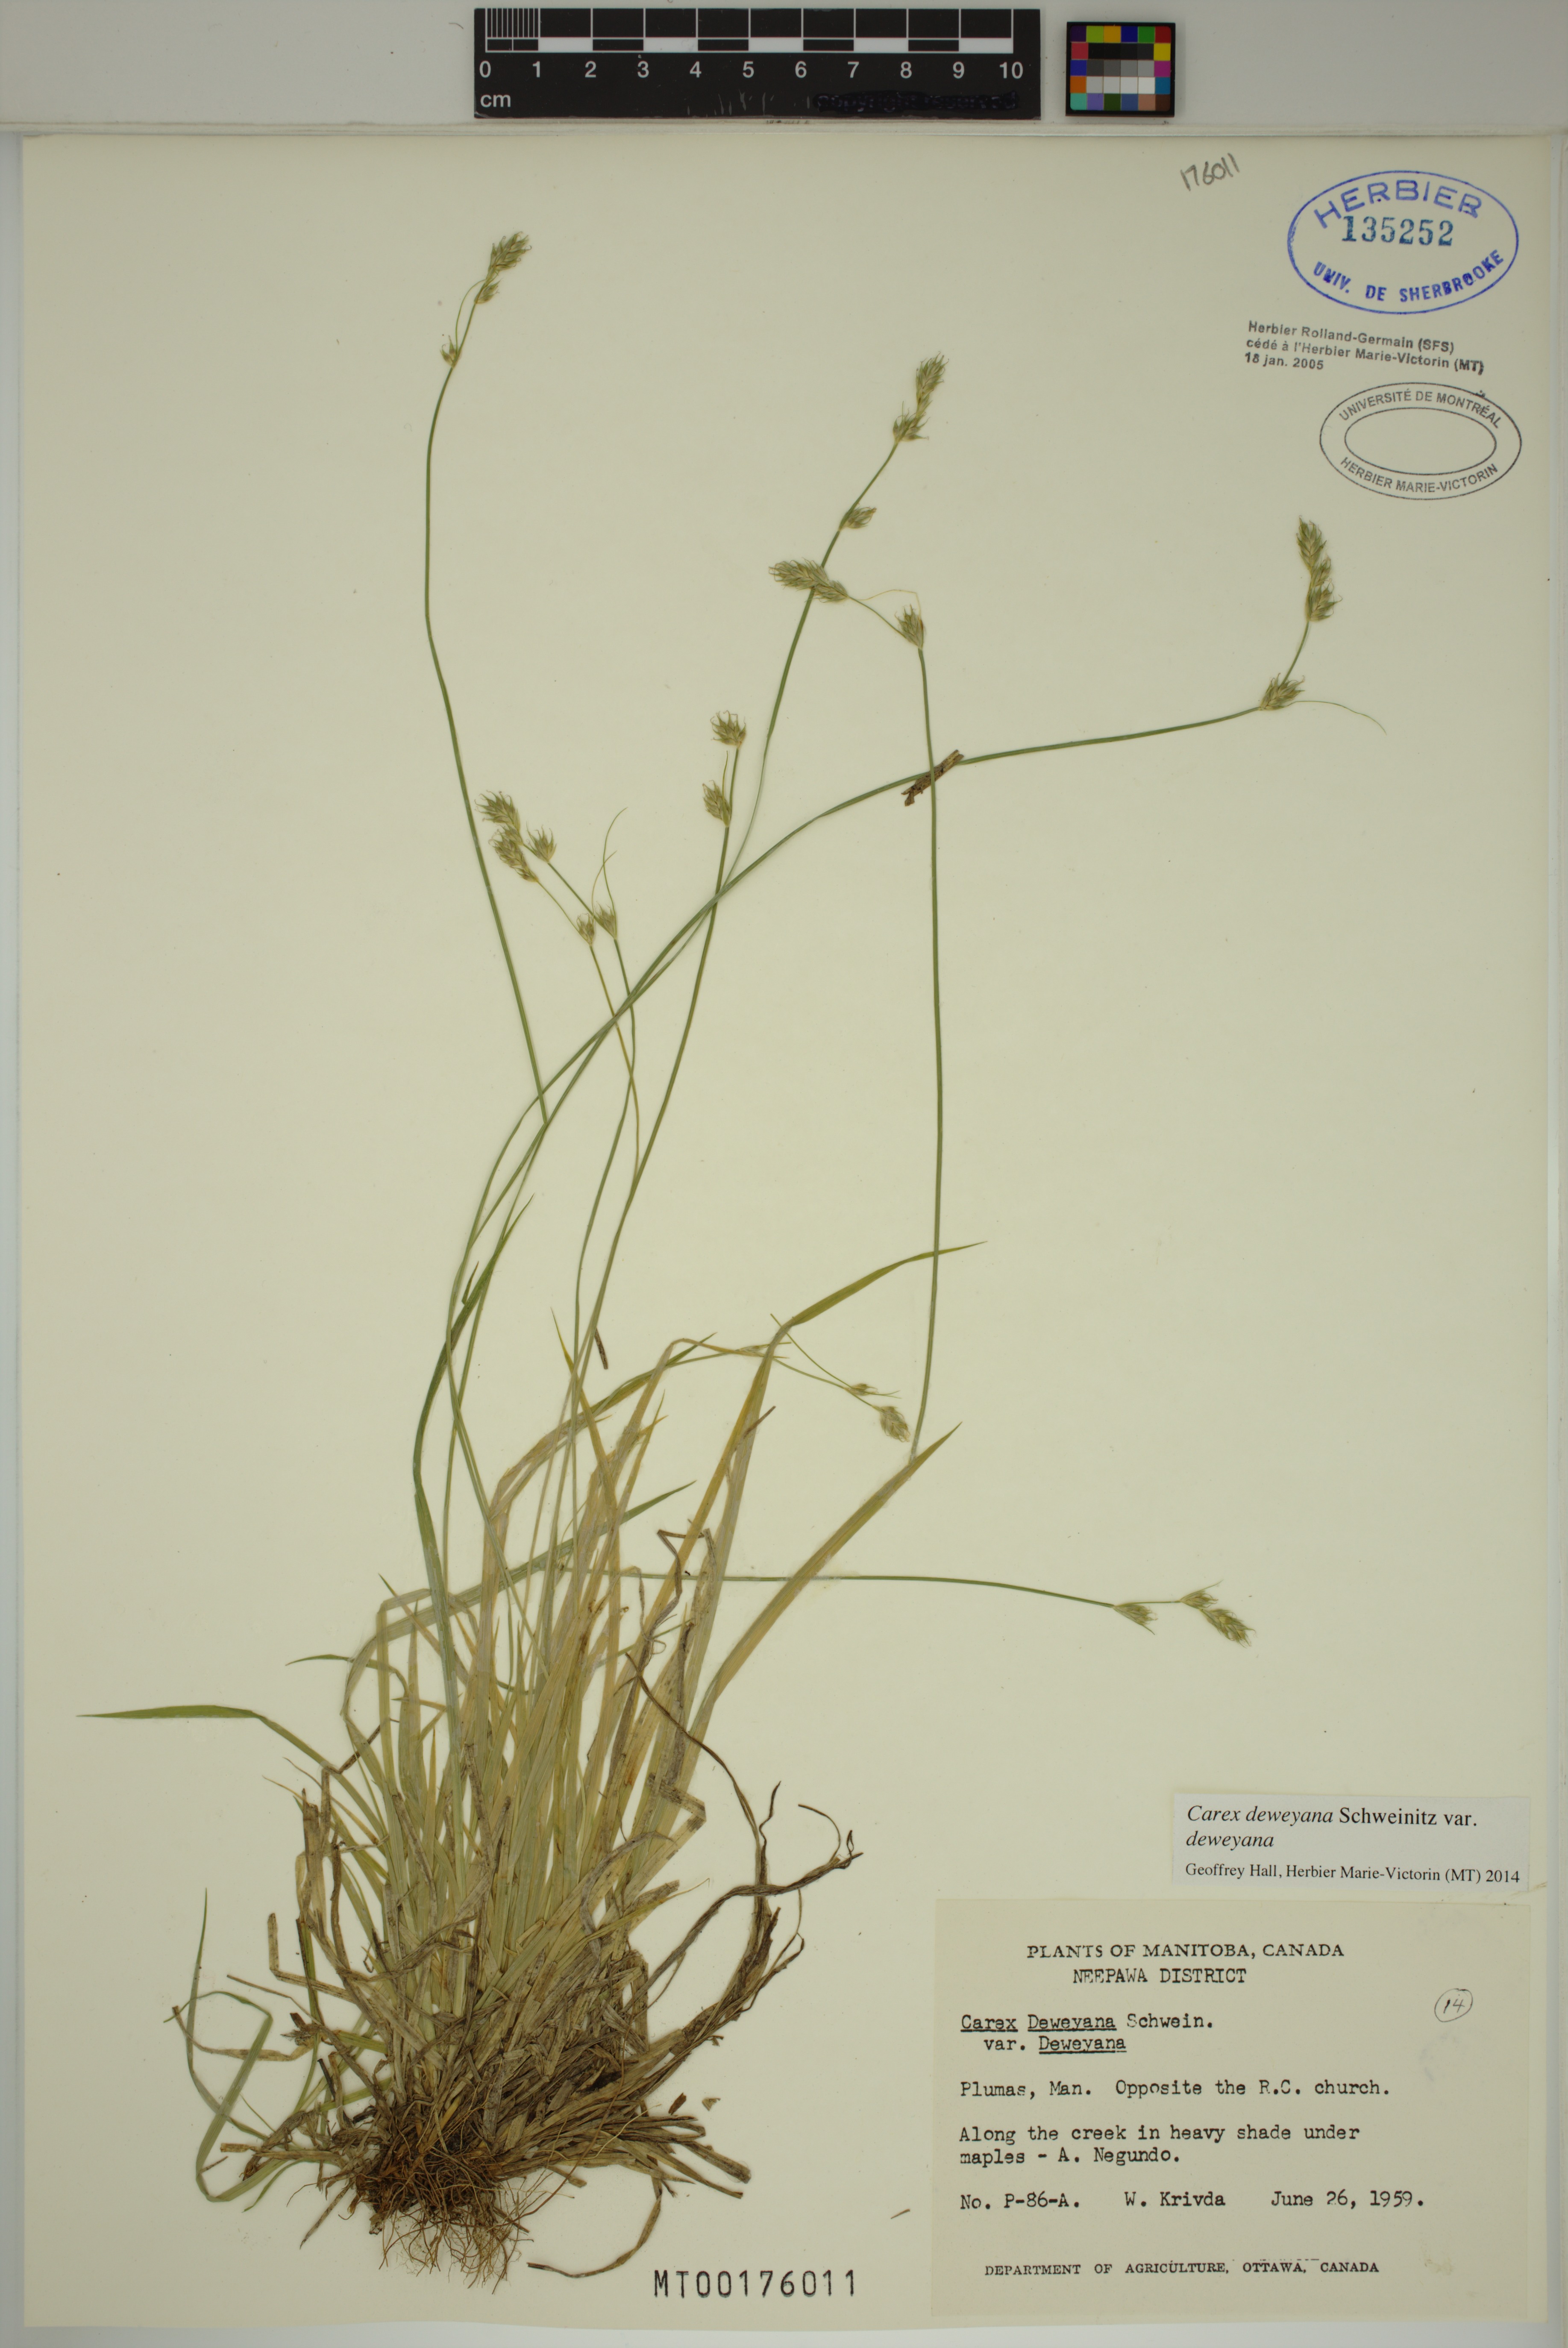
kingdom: Plantae
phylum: Tracheophyta
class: Liliopsida
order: Poales
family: Cyperaceae
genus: Carex
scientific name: Carex deweyana
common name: Dewey's sedge
